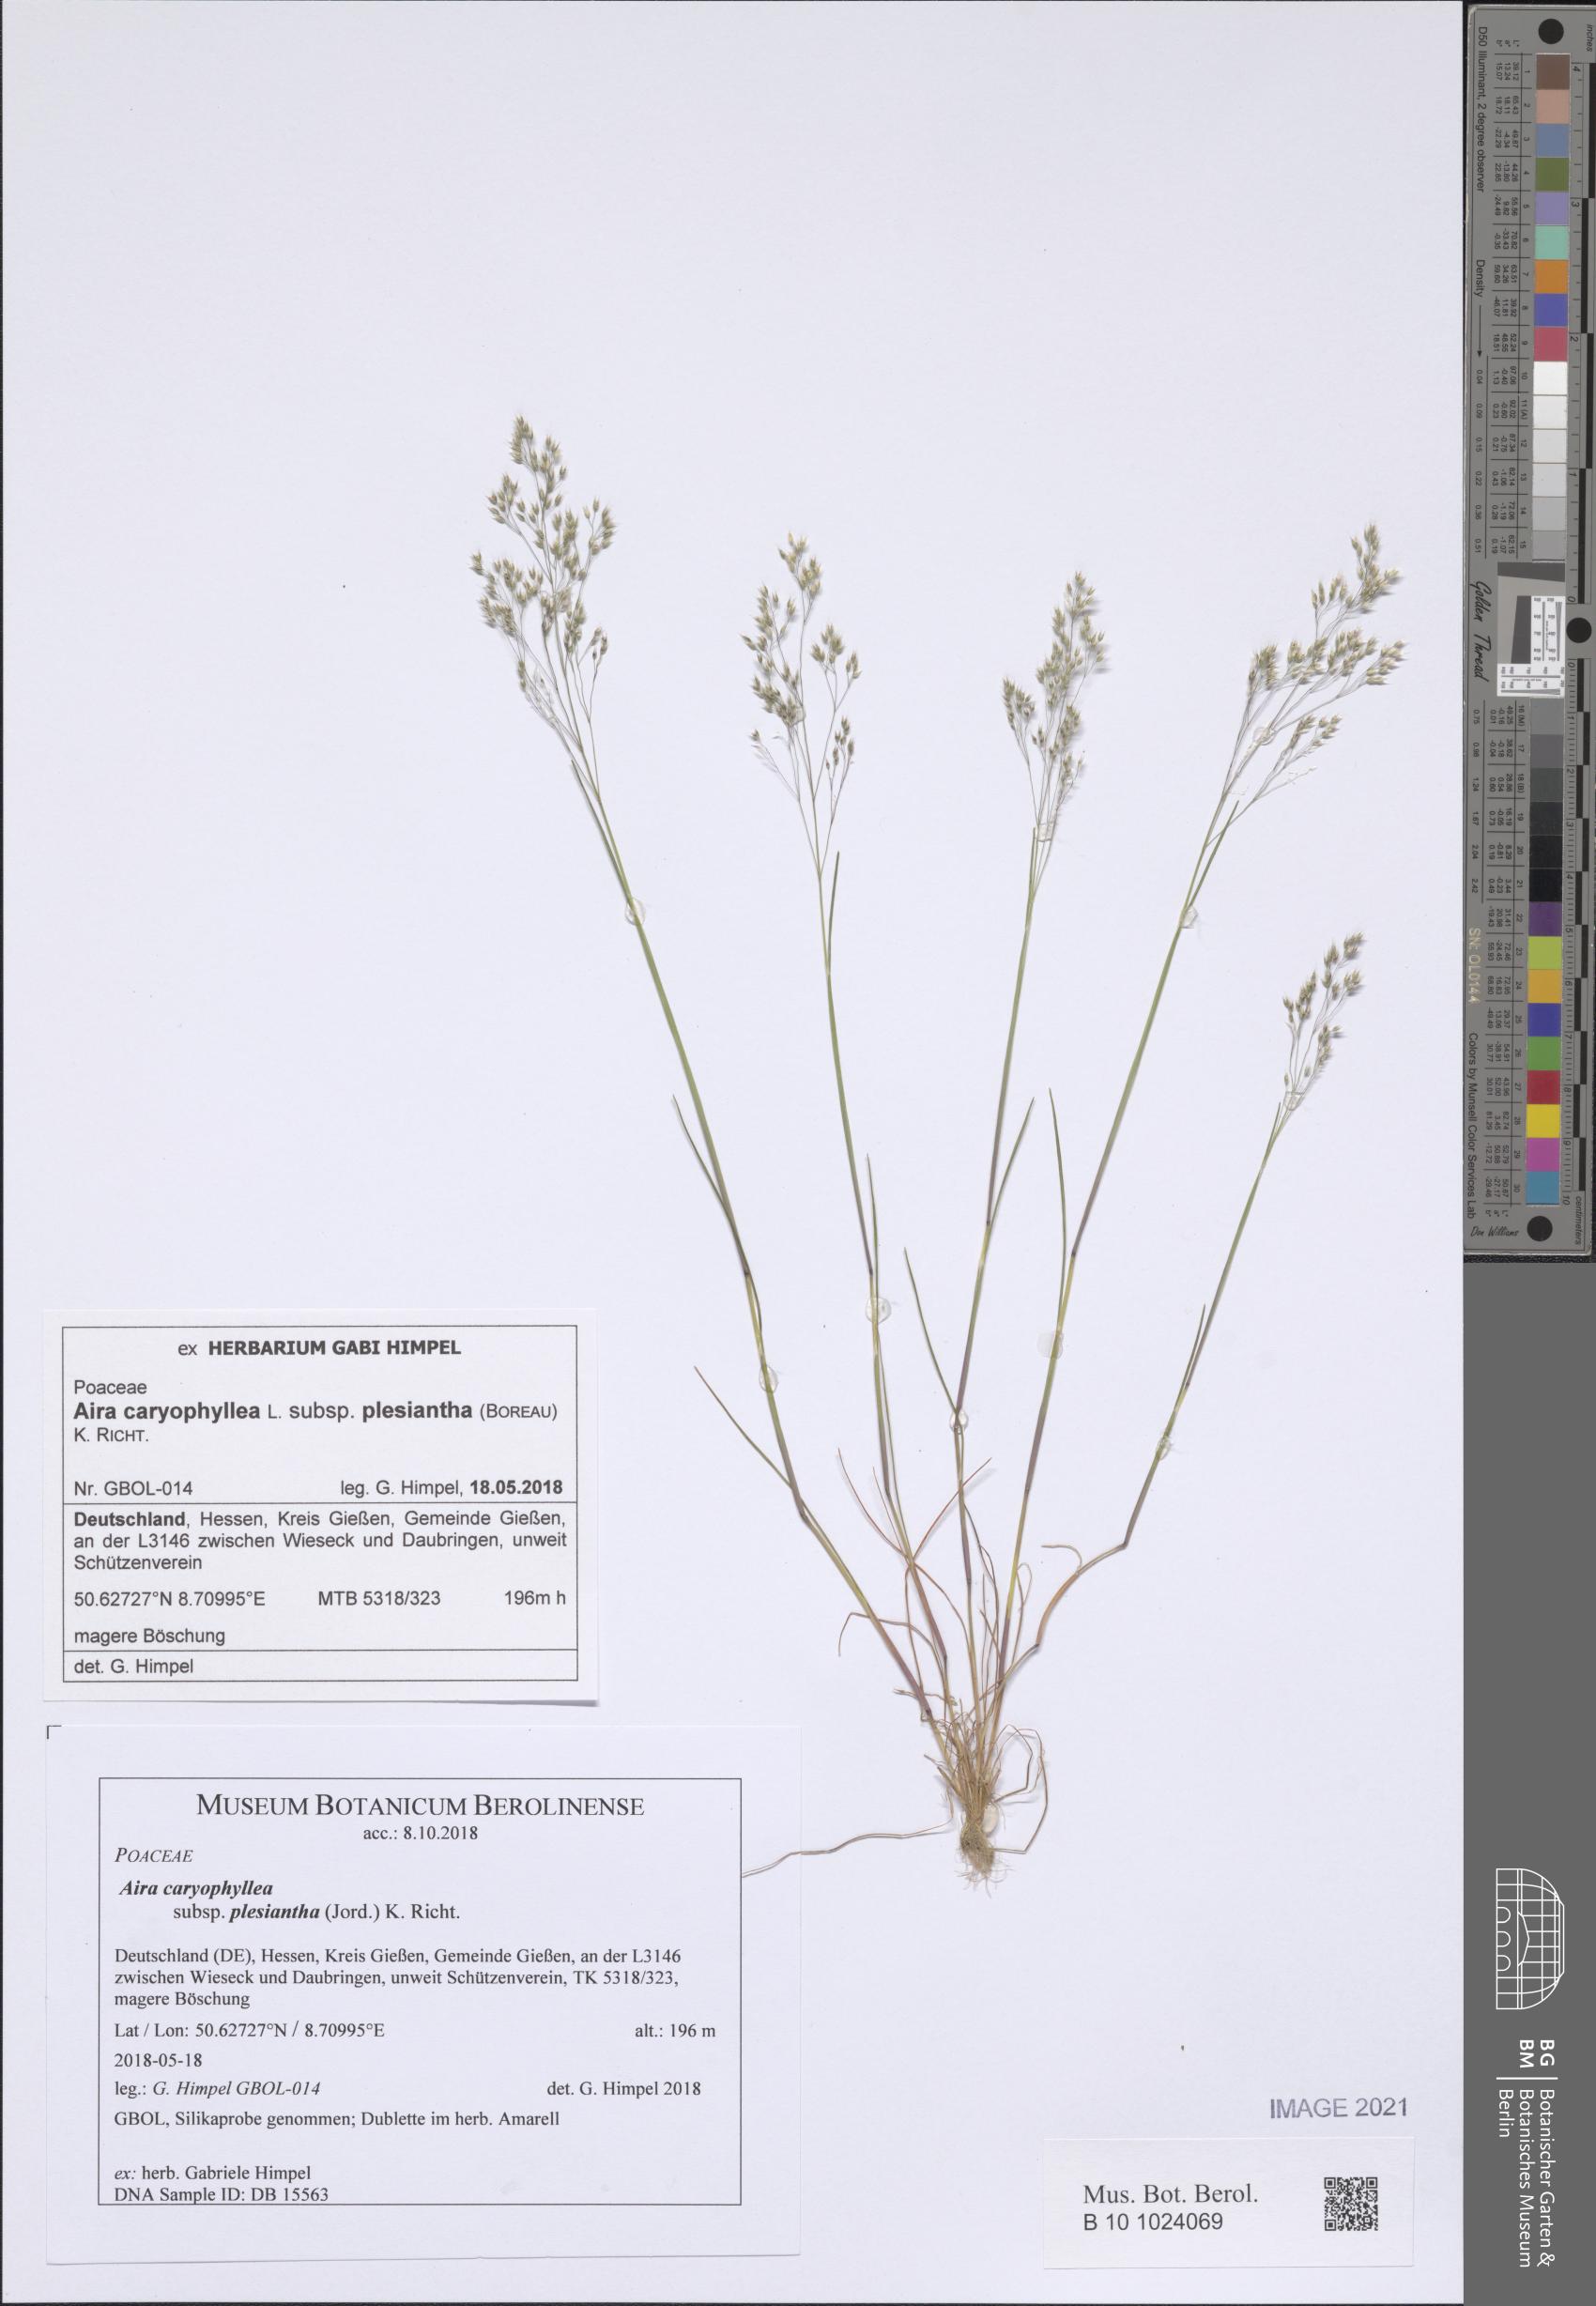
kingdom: Plantae
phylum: Tracheophyta
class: Liliopsida
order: Poales
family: Poaceae
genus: Aira
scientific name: Aira caryophyllea
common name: Silver hairgrass
